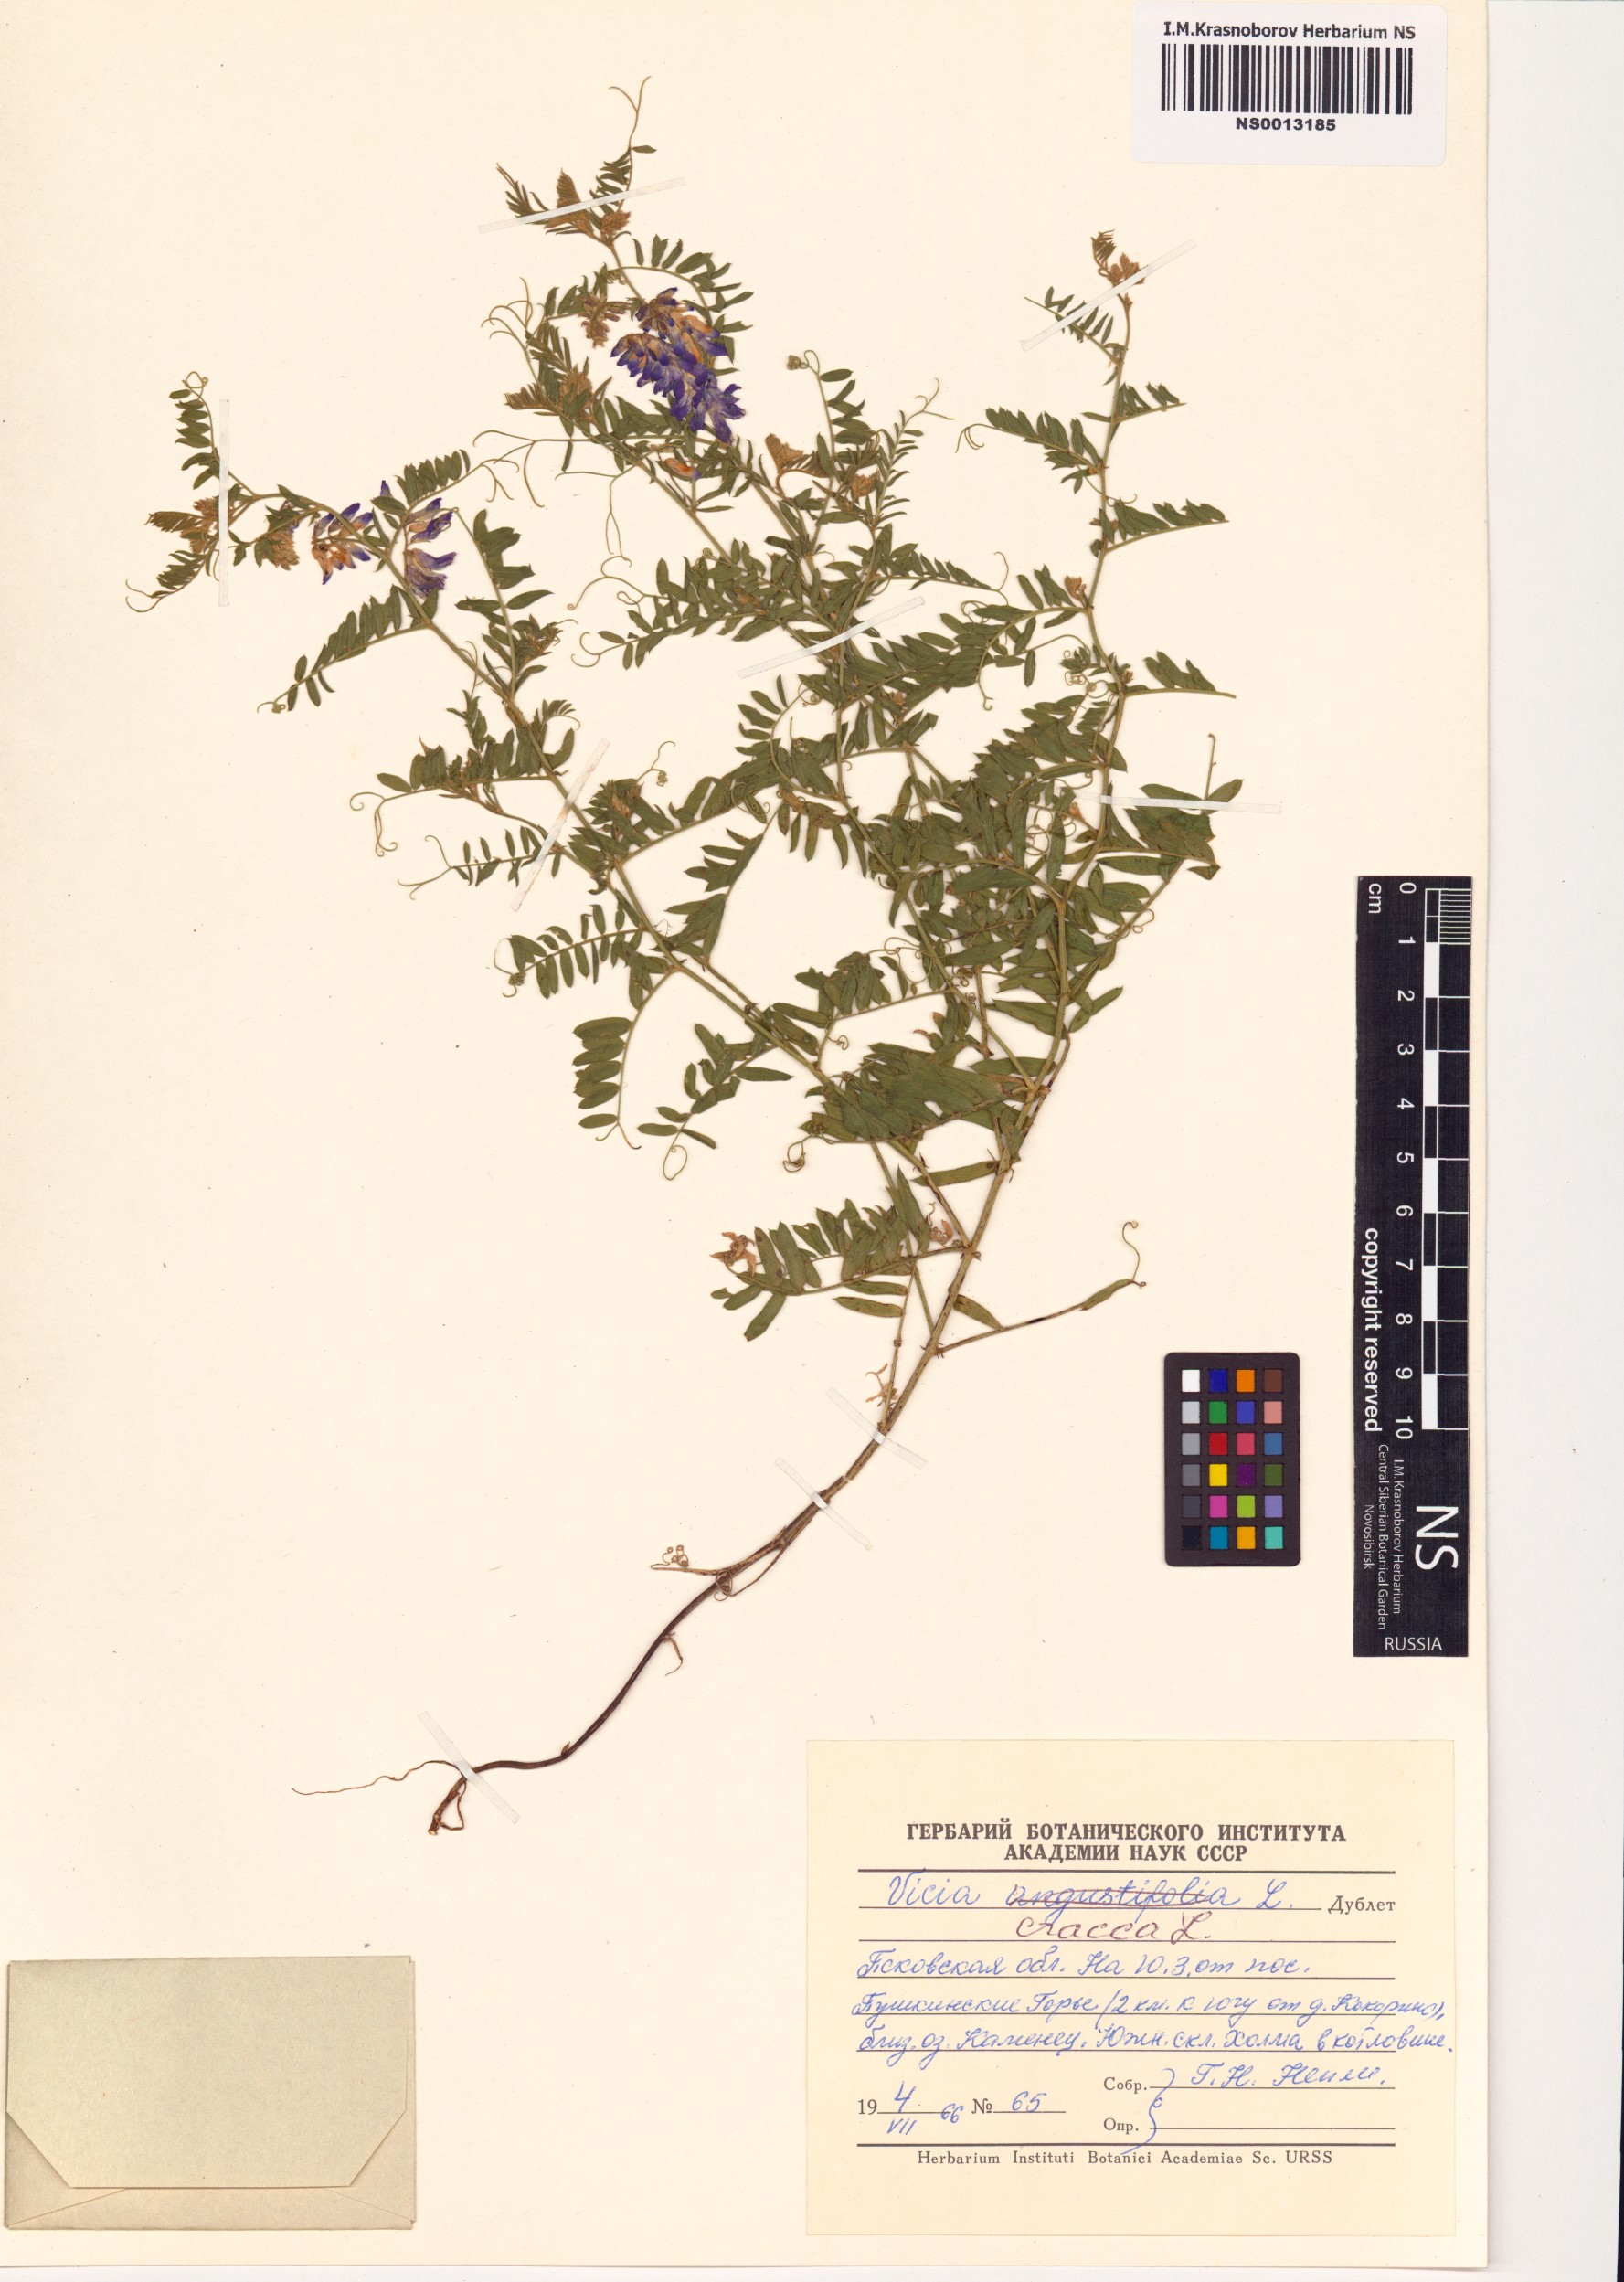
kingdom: Plantae
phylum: Tracheophyta
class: Magnoliopsida
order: Fabales
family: Fabaceae
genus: Vicia
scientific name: Vicia cracca
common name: Bird vetch
